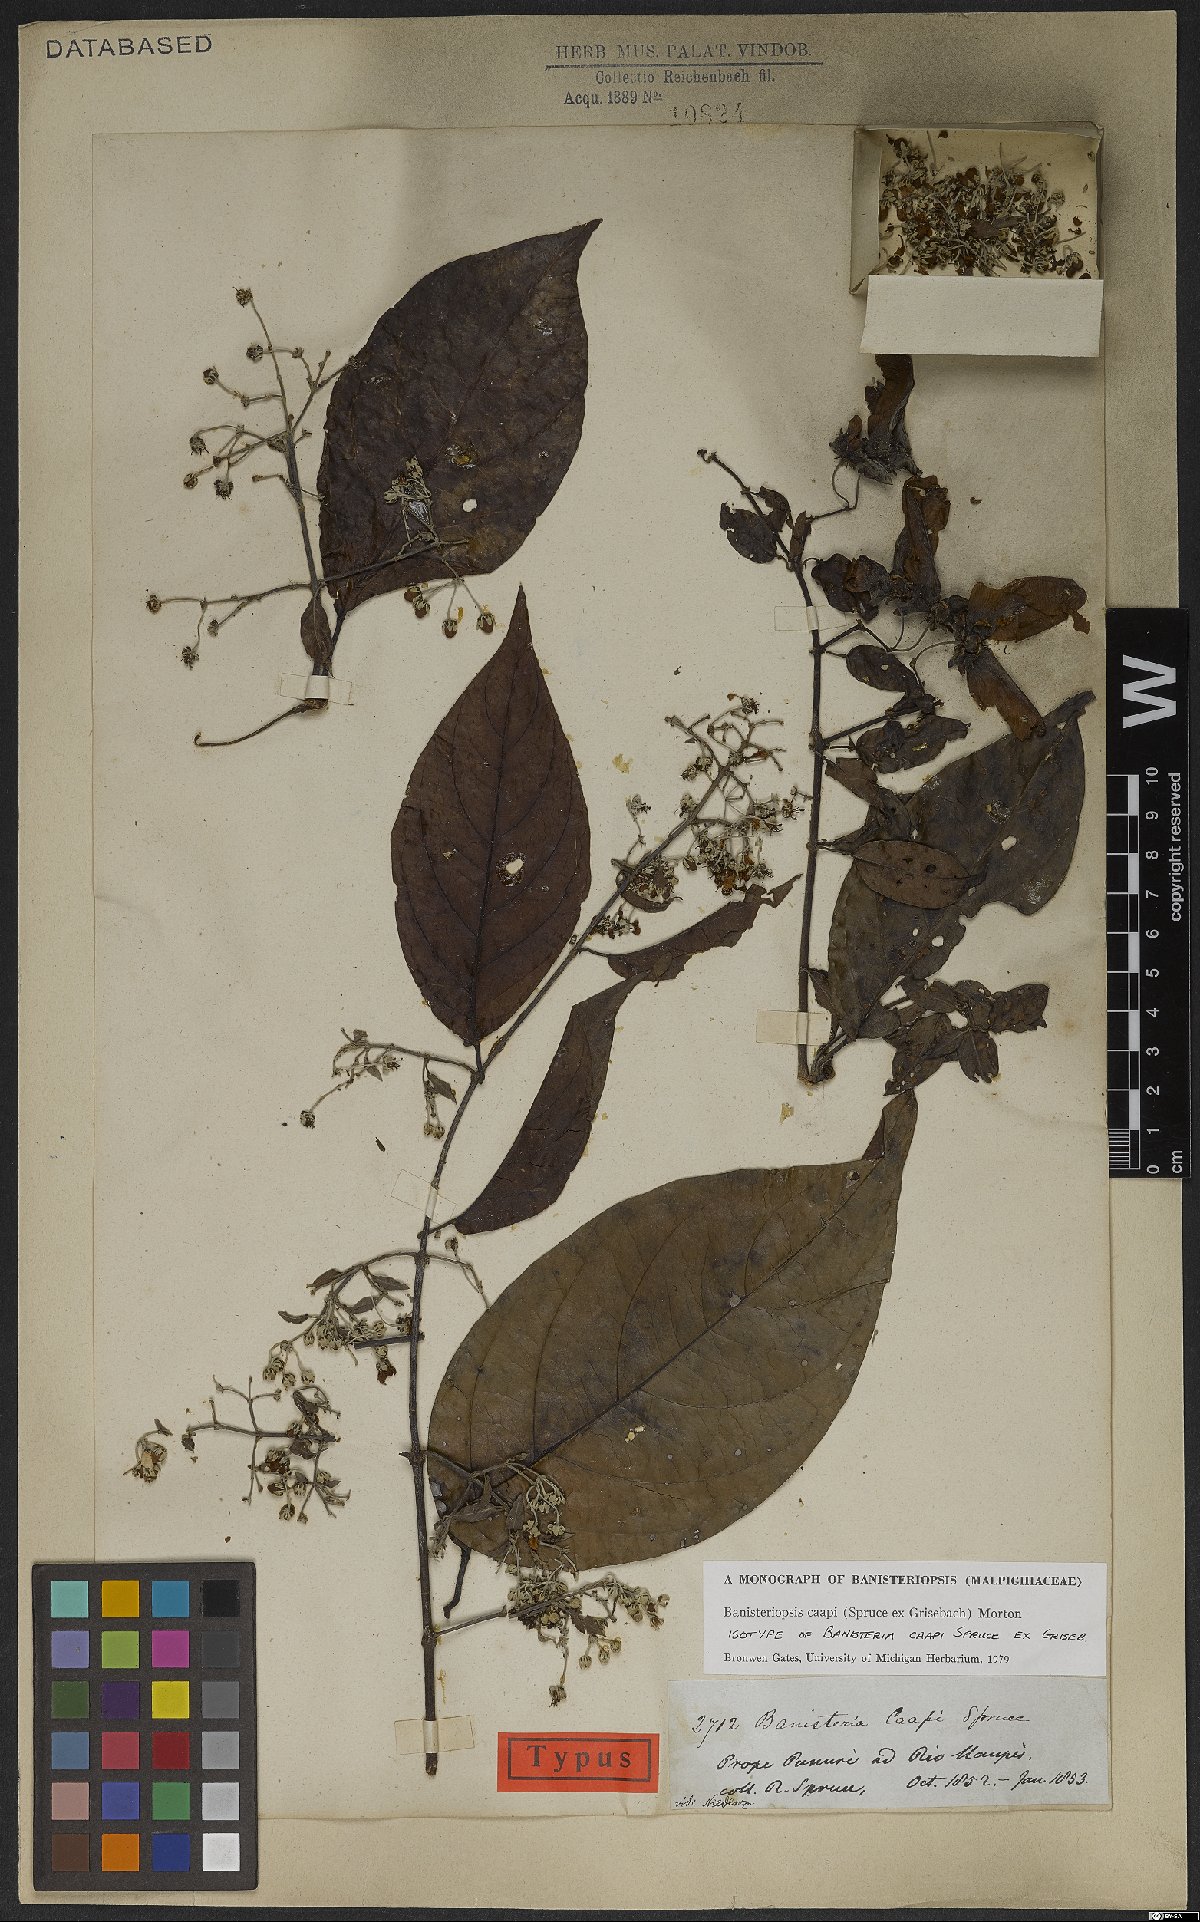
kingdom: Plantae
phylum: Tracheophyta
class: Magnoliopsida
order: Malpighiales
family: Malpighiaceae
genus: Banisteriopsis
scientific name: Banisteriopsis caapi
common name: Soulvine
